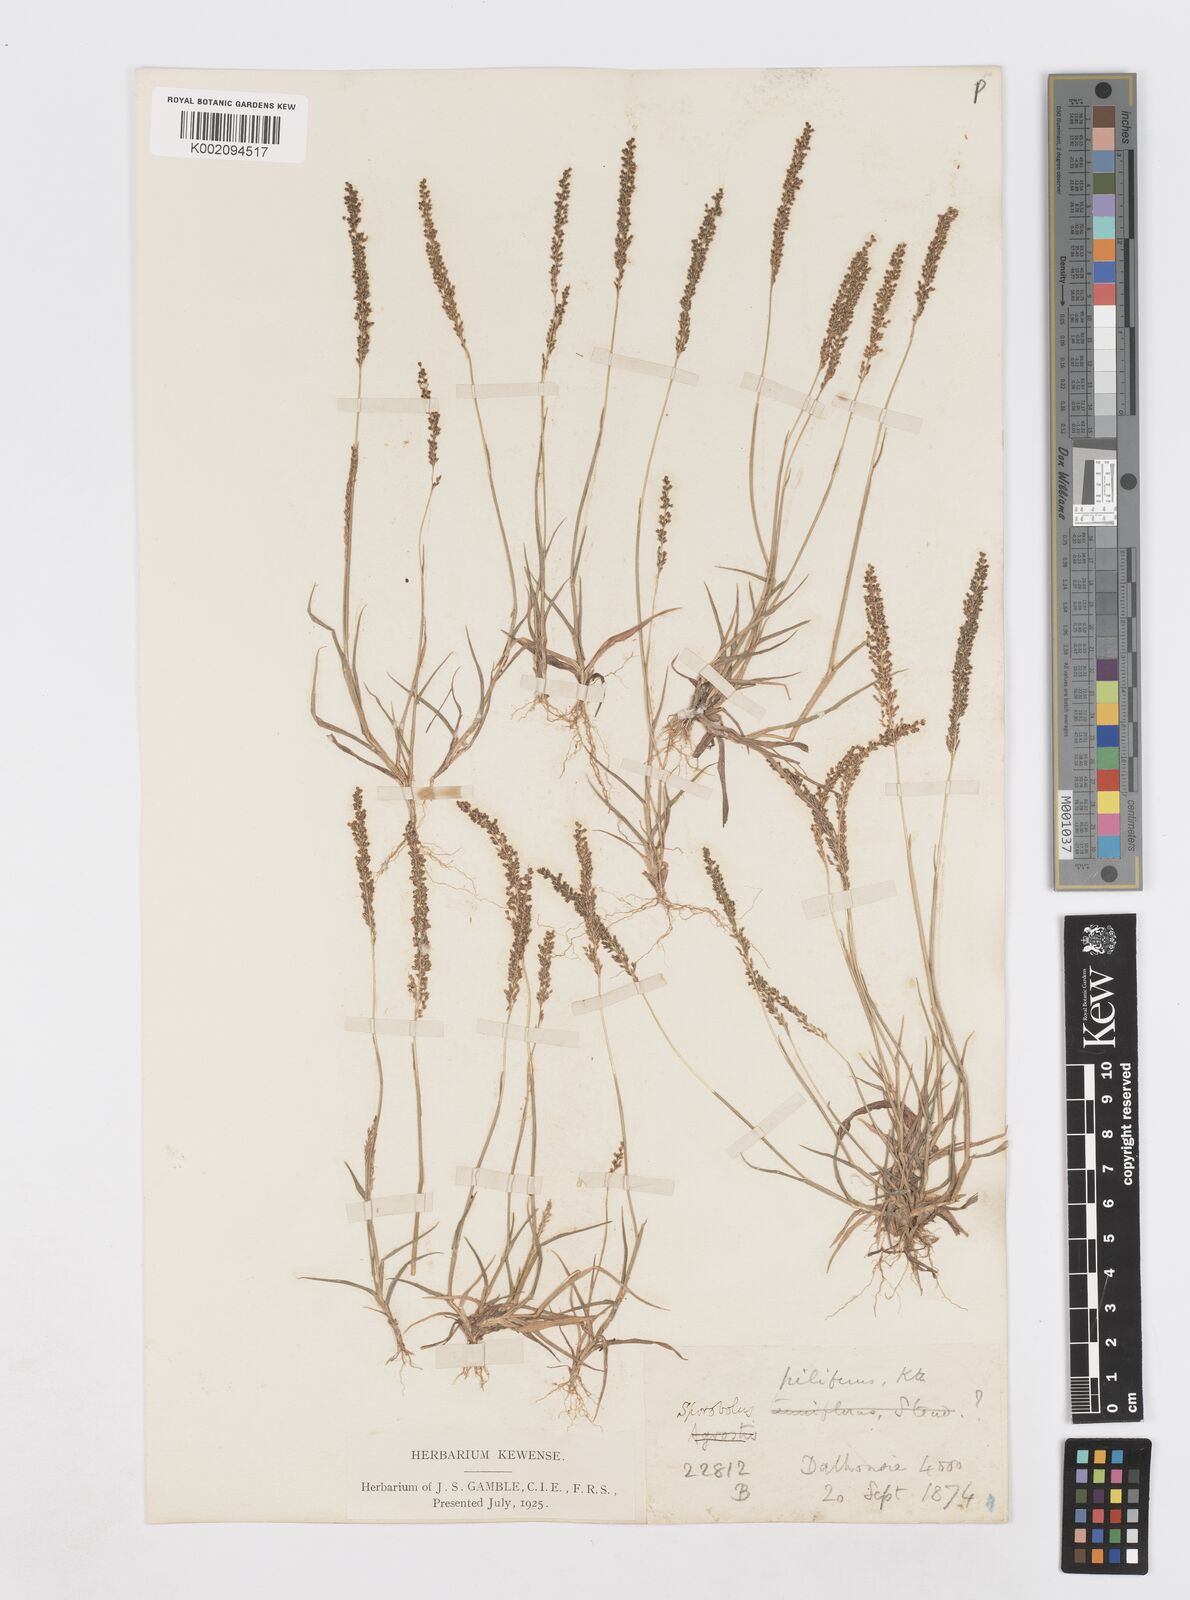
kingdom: Plantae
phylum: Tracheophyta
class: Liliopsida
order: Poales
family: Poaceae
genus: Sporobolus
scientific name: Sporobolus pilifer
